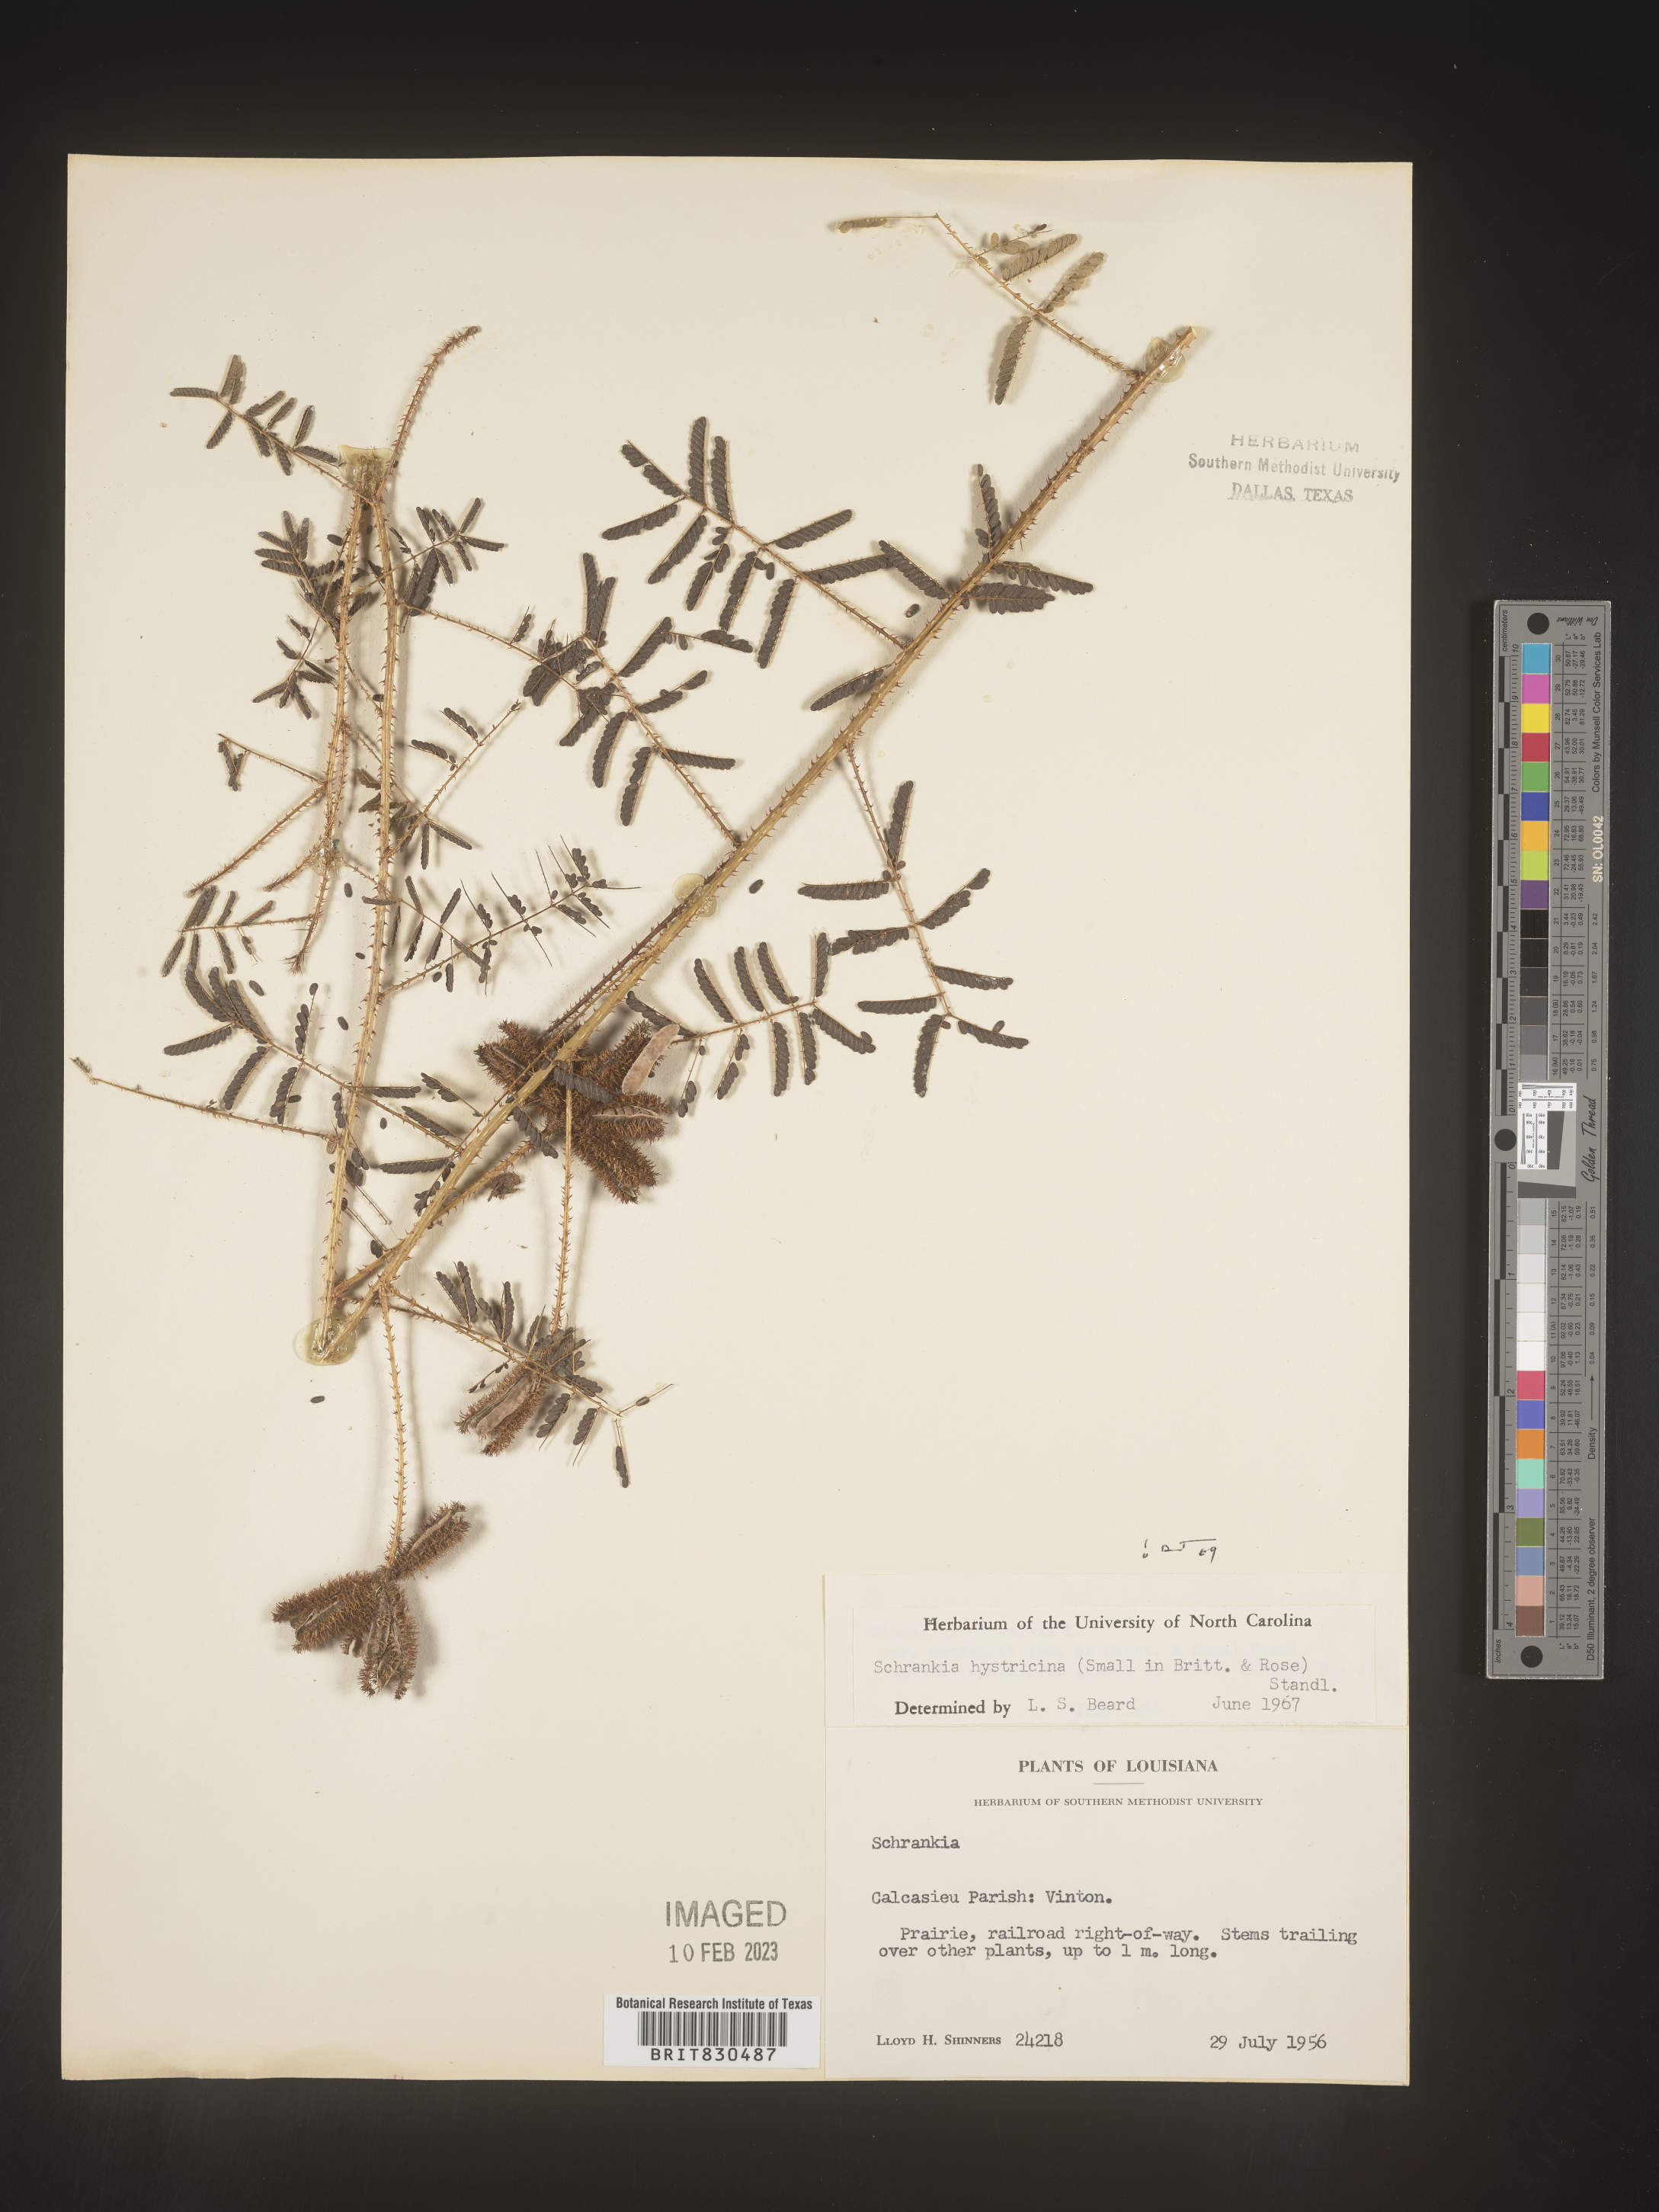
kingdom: Plantae
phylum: Tracheophyta
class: Magnoliopsida
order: Fabales
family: Fabaceae
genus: Mimosa
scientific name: Mimosa hystricina
